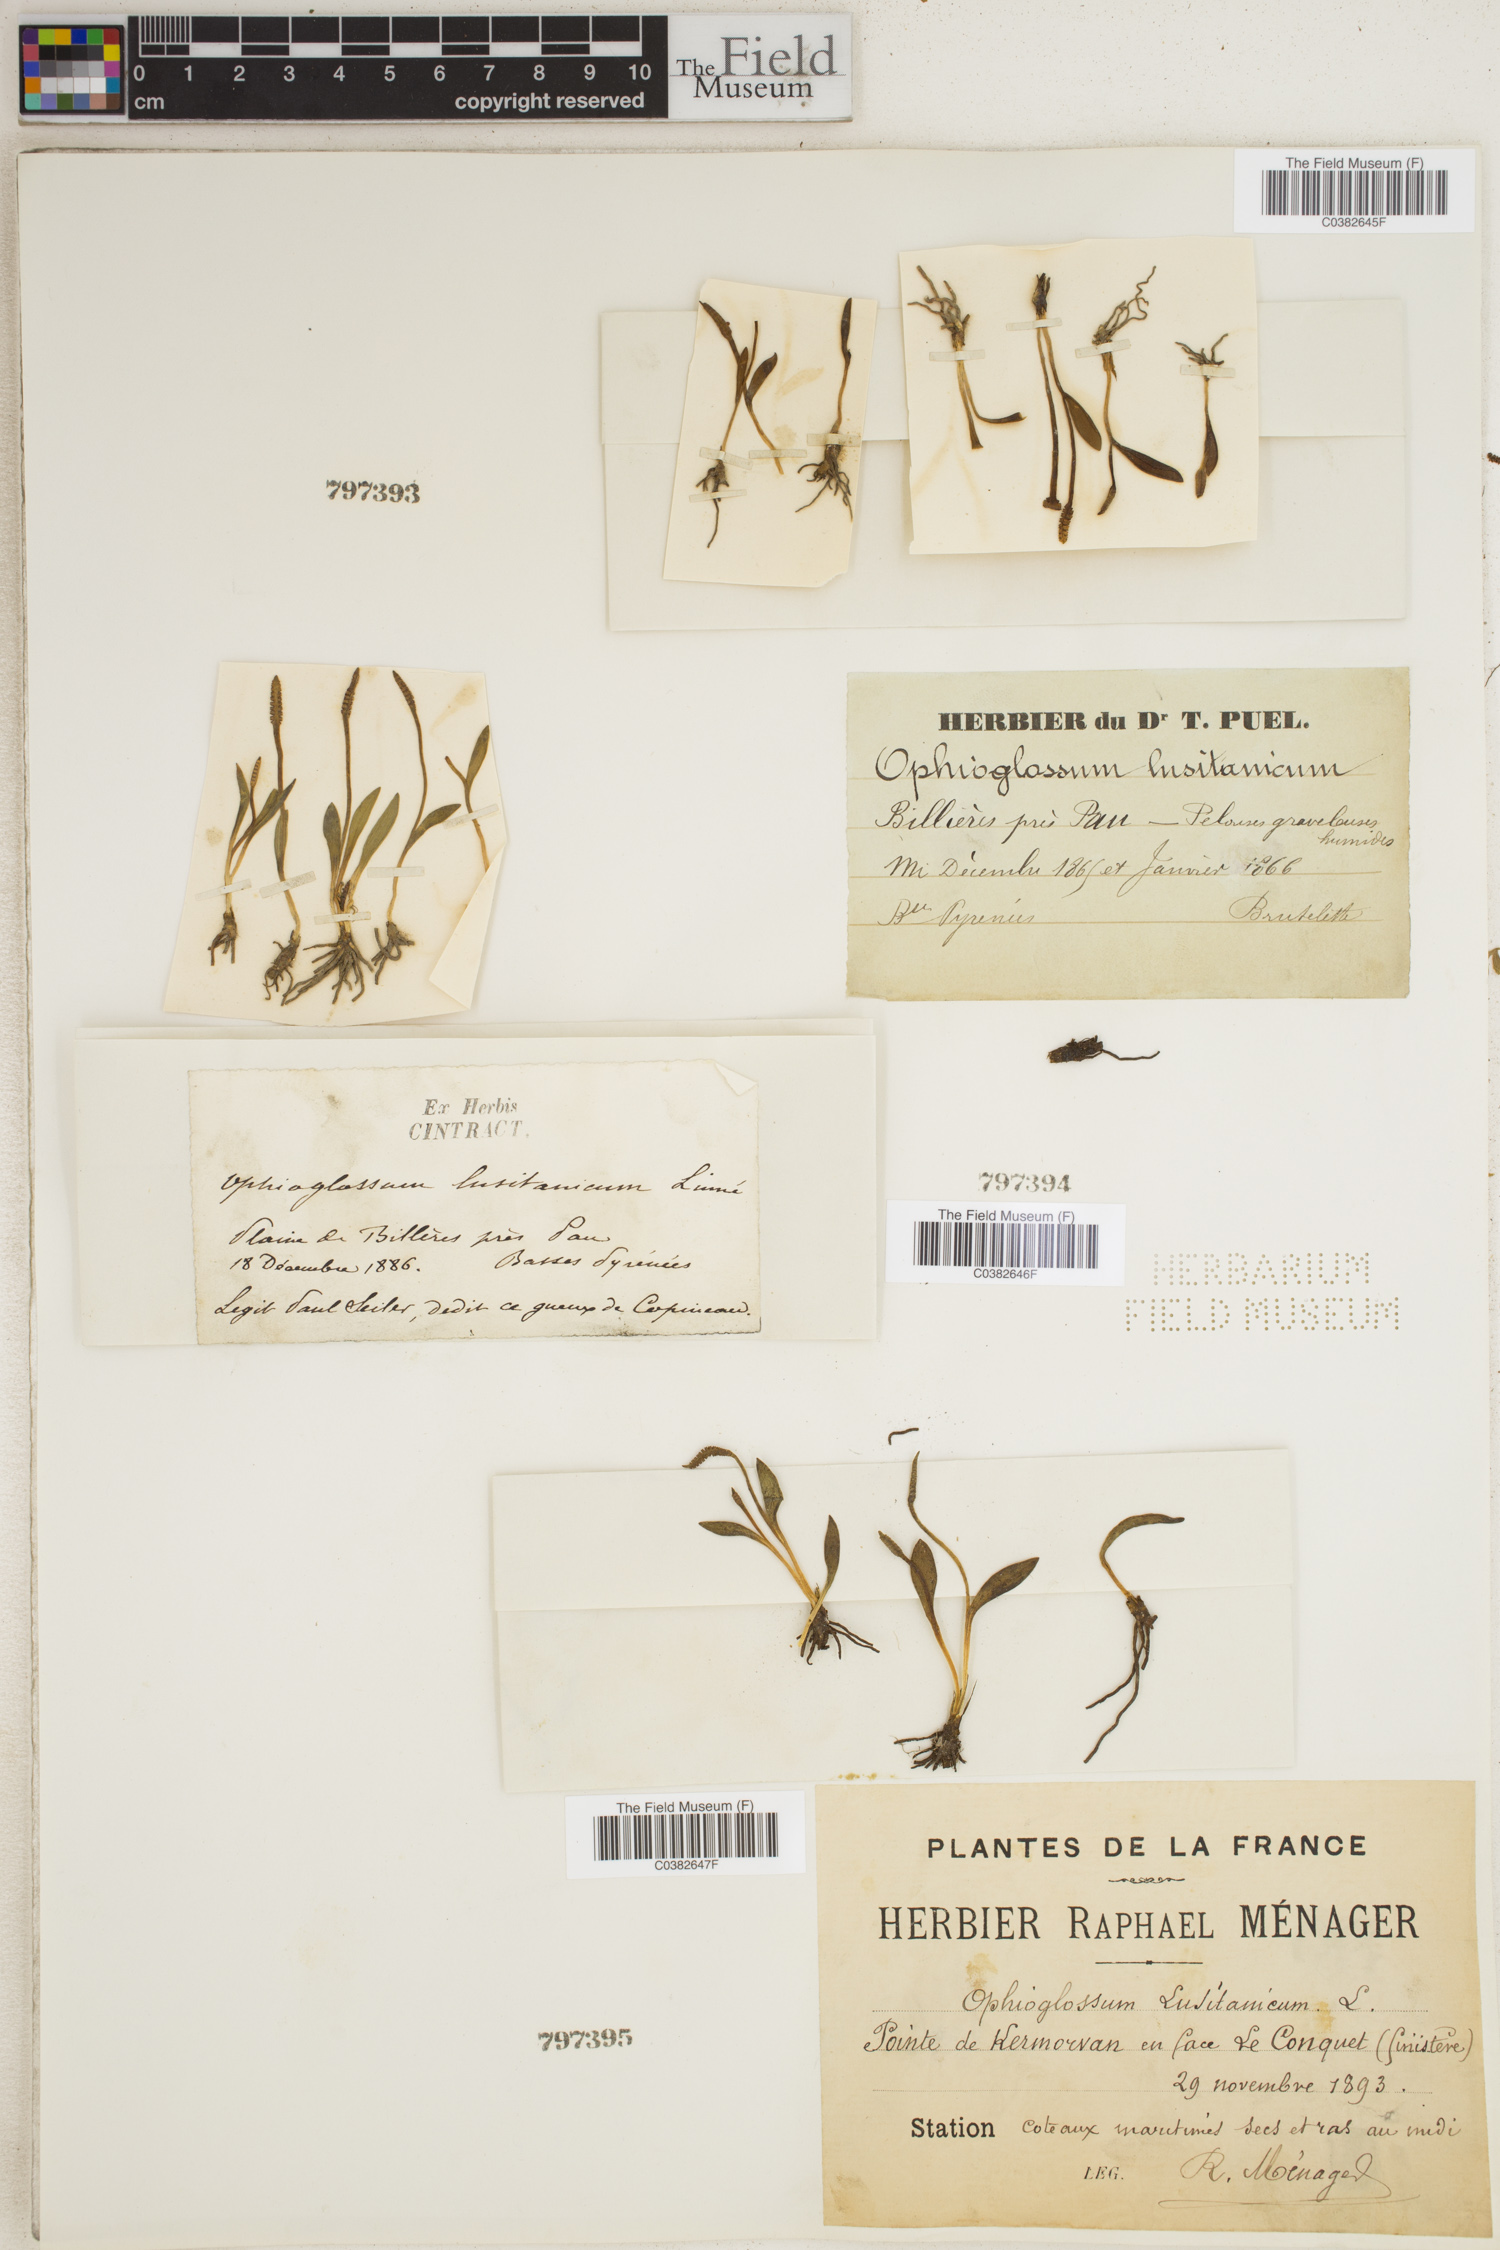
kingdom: Plantae
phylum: Tracheophyta
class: Polypodiopsida
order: Ophioglossales
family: Ophioglossaceae
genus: Ophioglossum
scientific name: Ophioglossum lusitanicum
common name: Least adder's-tongue
